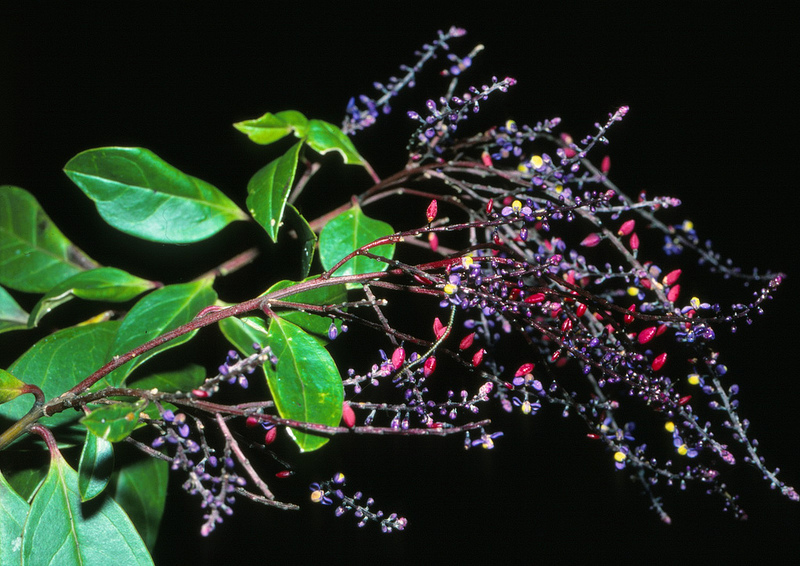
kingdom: Plantae
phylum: Tracheophyta
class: Magnoliopsida
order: Fabales
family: Polygalaceae
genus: Monnina
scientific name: Monnina speciosa
